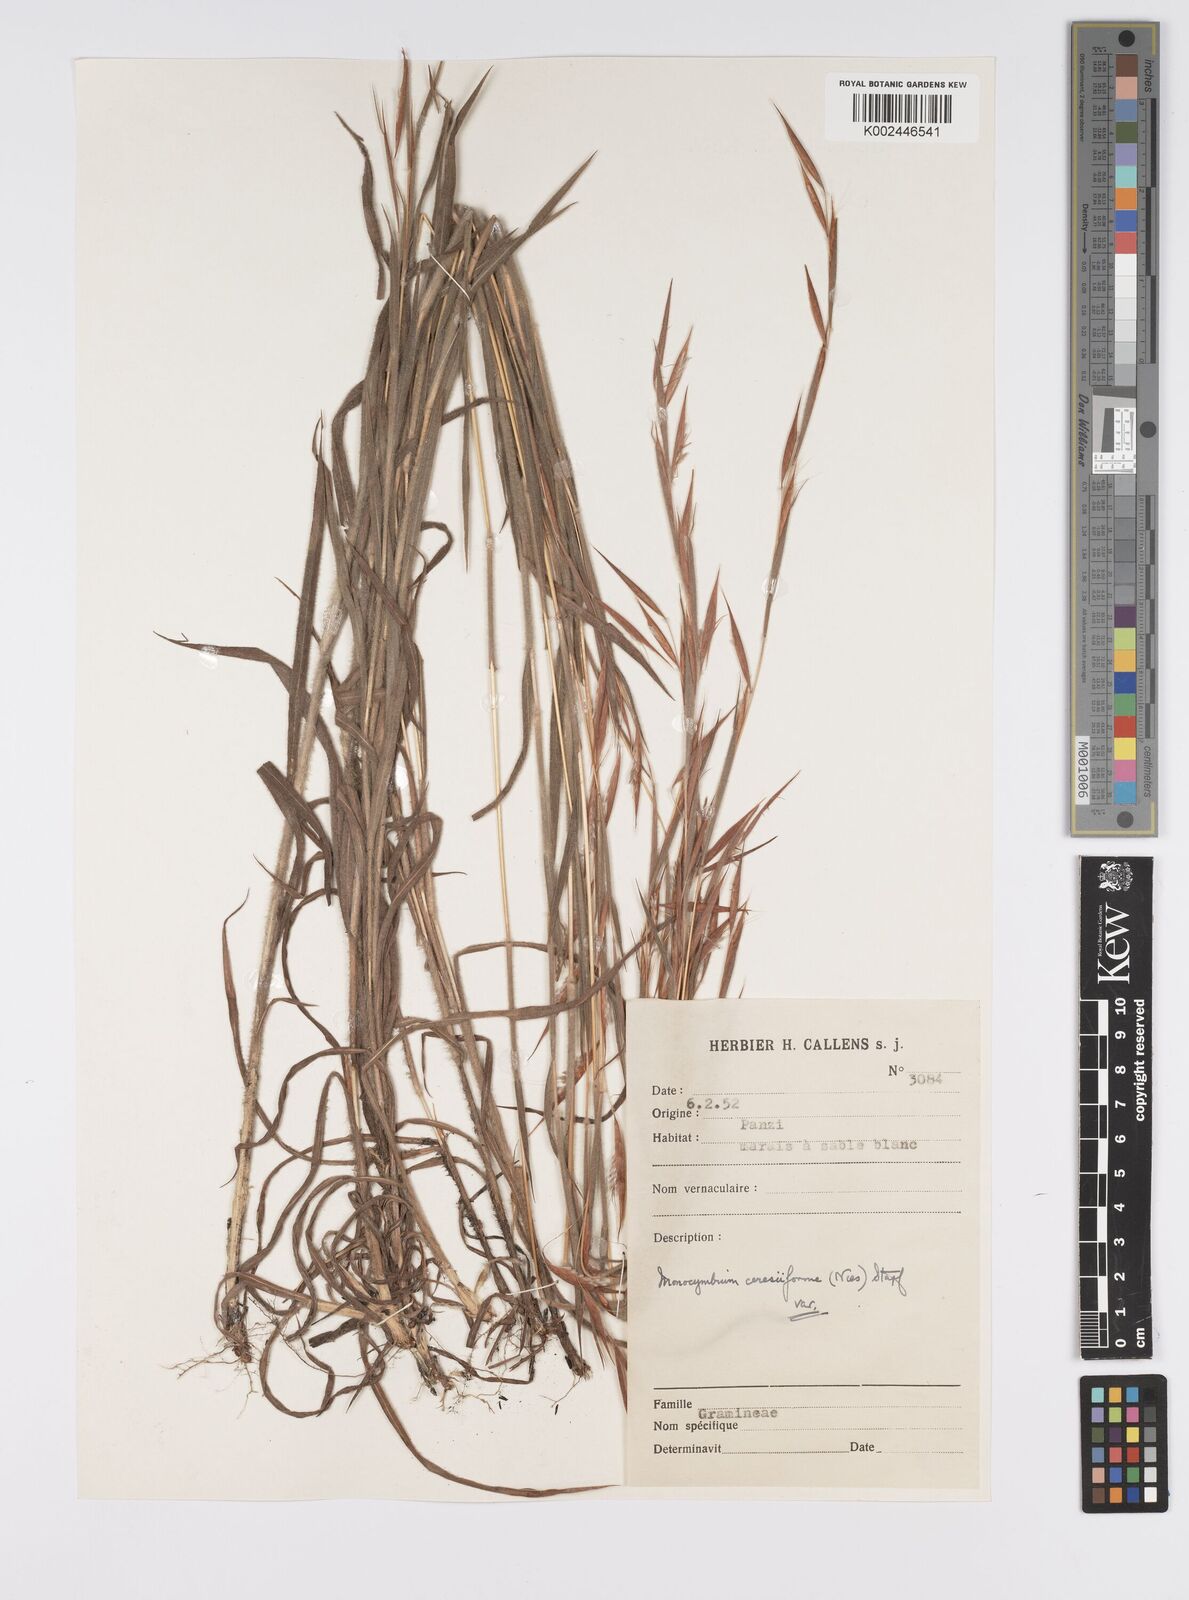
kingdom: Plantae
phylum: Tracheophyta
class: Liliopsida
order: Poales
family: Poaceae
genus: Monocymbium
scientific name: Monocymbium ceresiiforme
